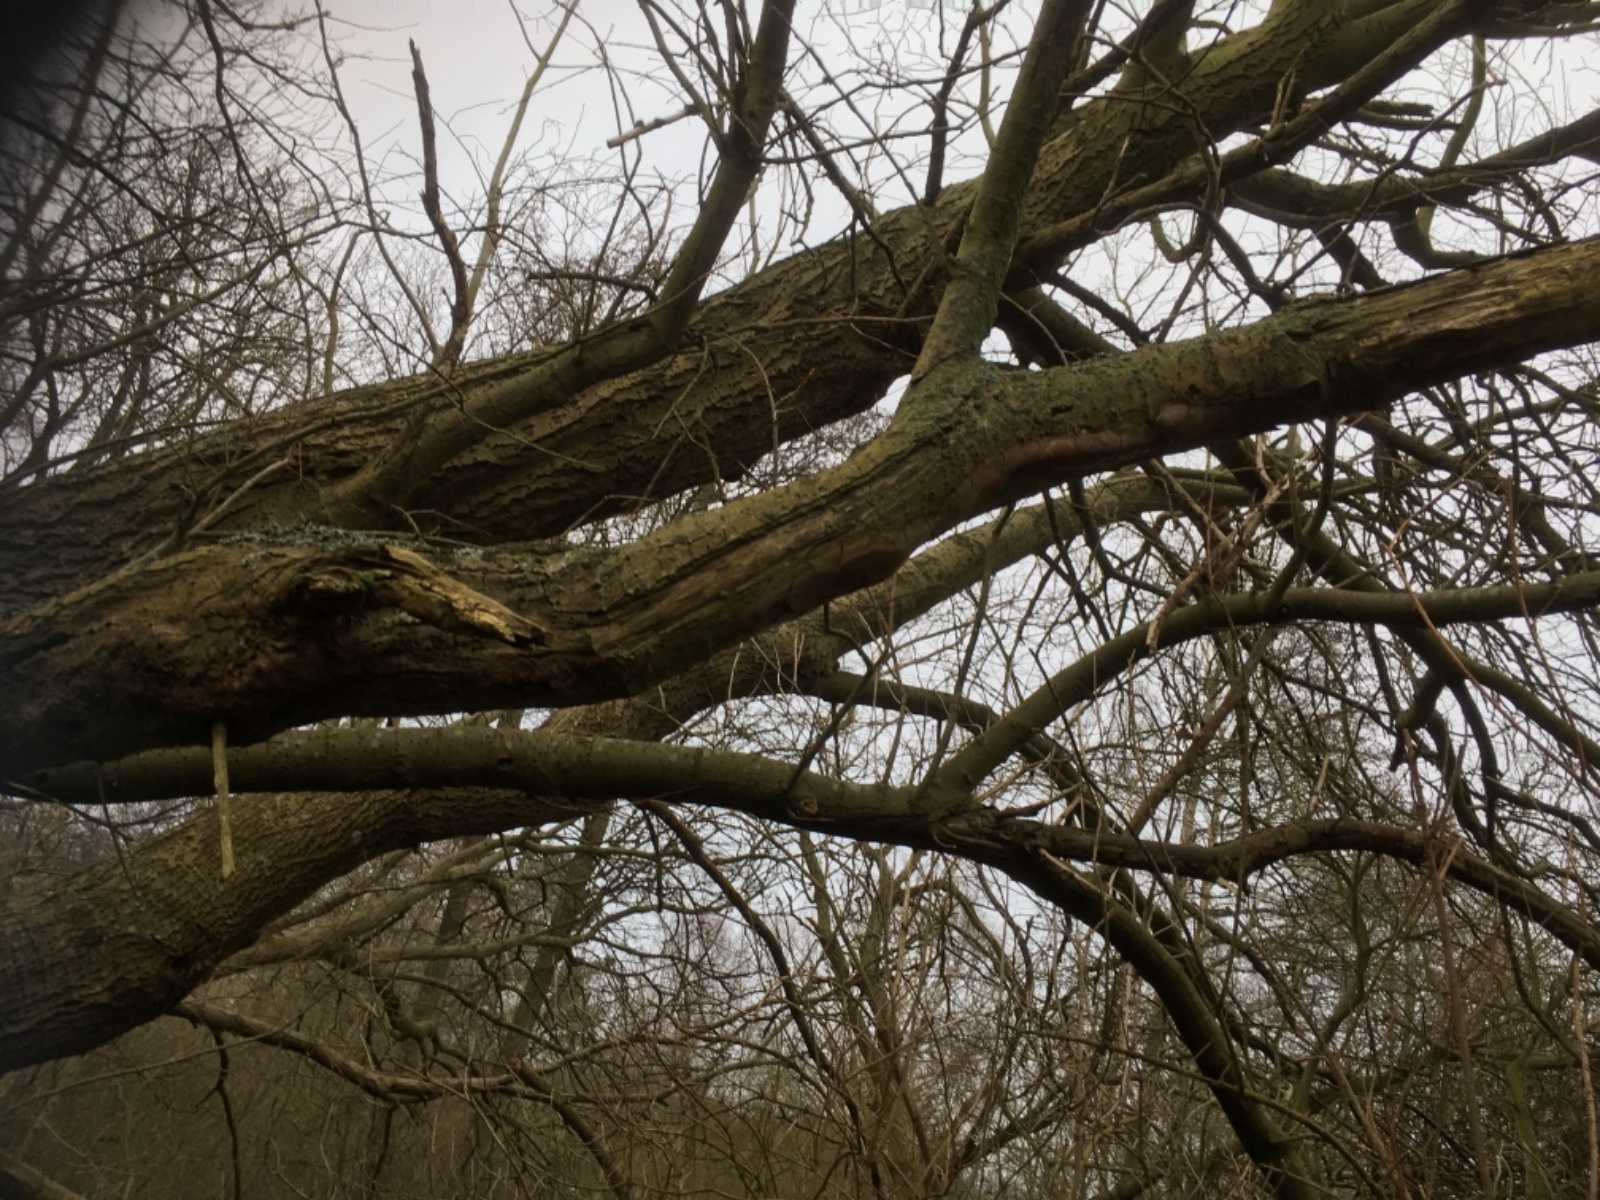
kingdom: Fungi
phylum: Basidiomycota
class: Agaricomycetes
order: Hymenochaetales
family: Hymenochaetaceae
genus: Fomitiporia
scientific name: Fomitiporia punctata
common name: pude-ildporesvamp
